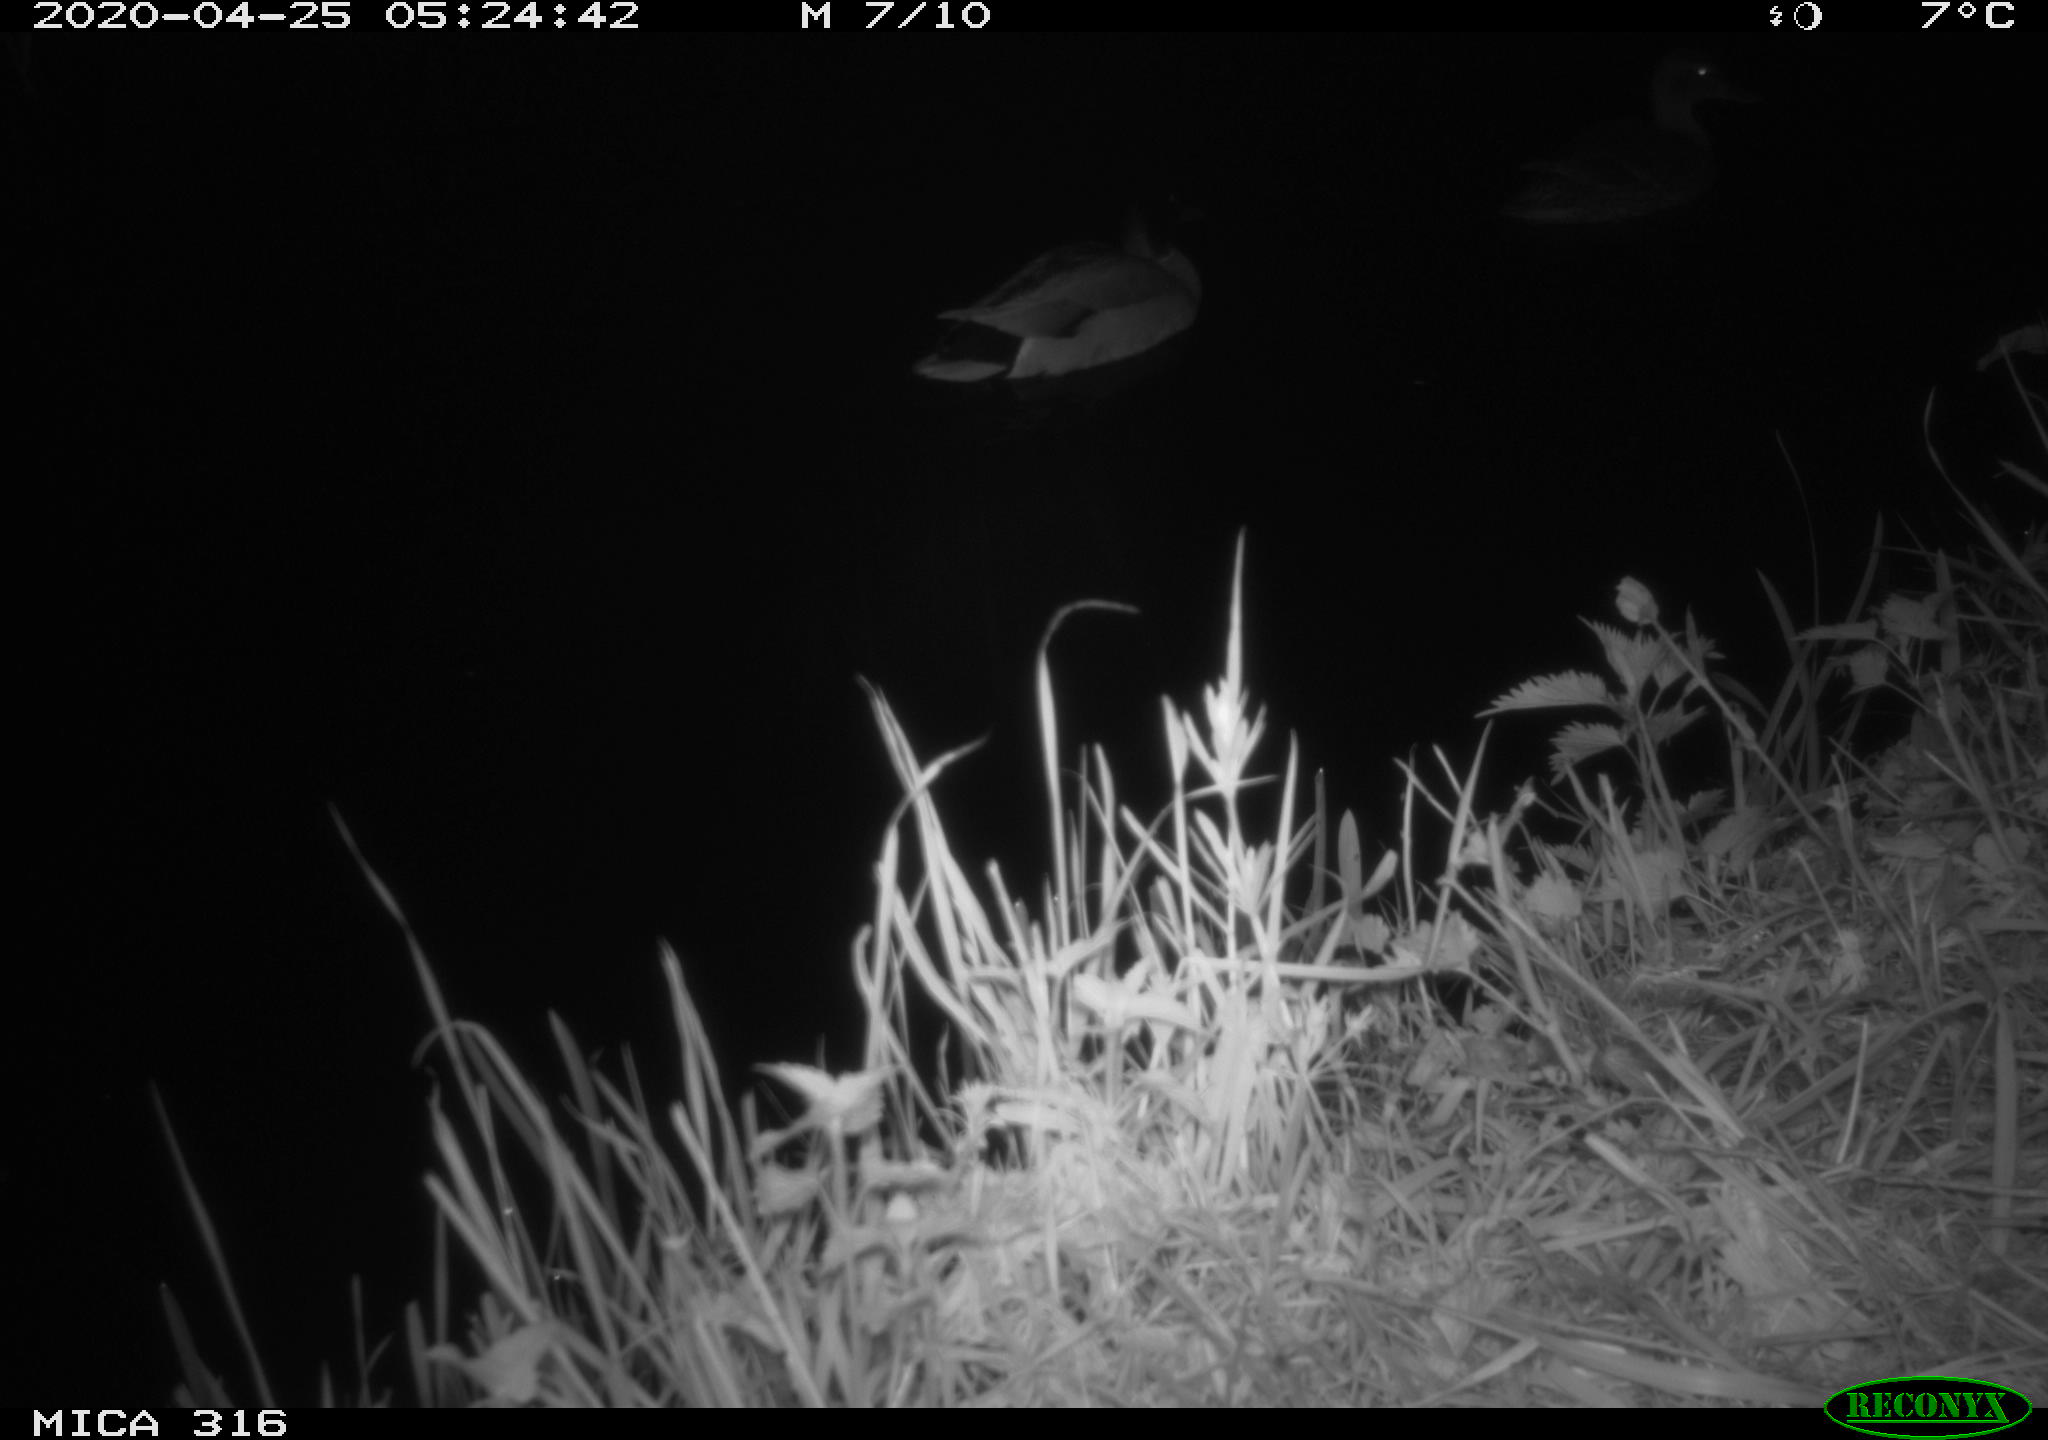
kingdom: Animalia
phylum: Chordata
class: Aves
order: Anseriformes
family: Anatidae
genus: Anas
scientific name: Anas platyrhynchos
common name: Mallard
